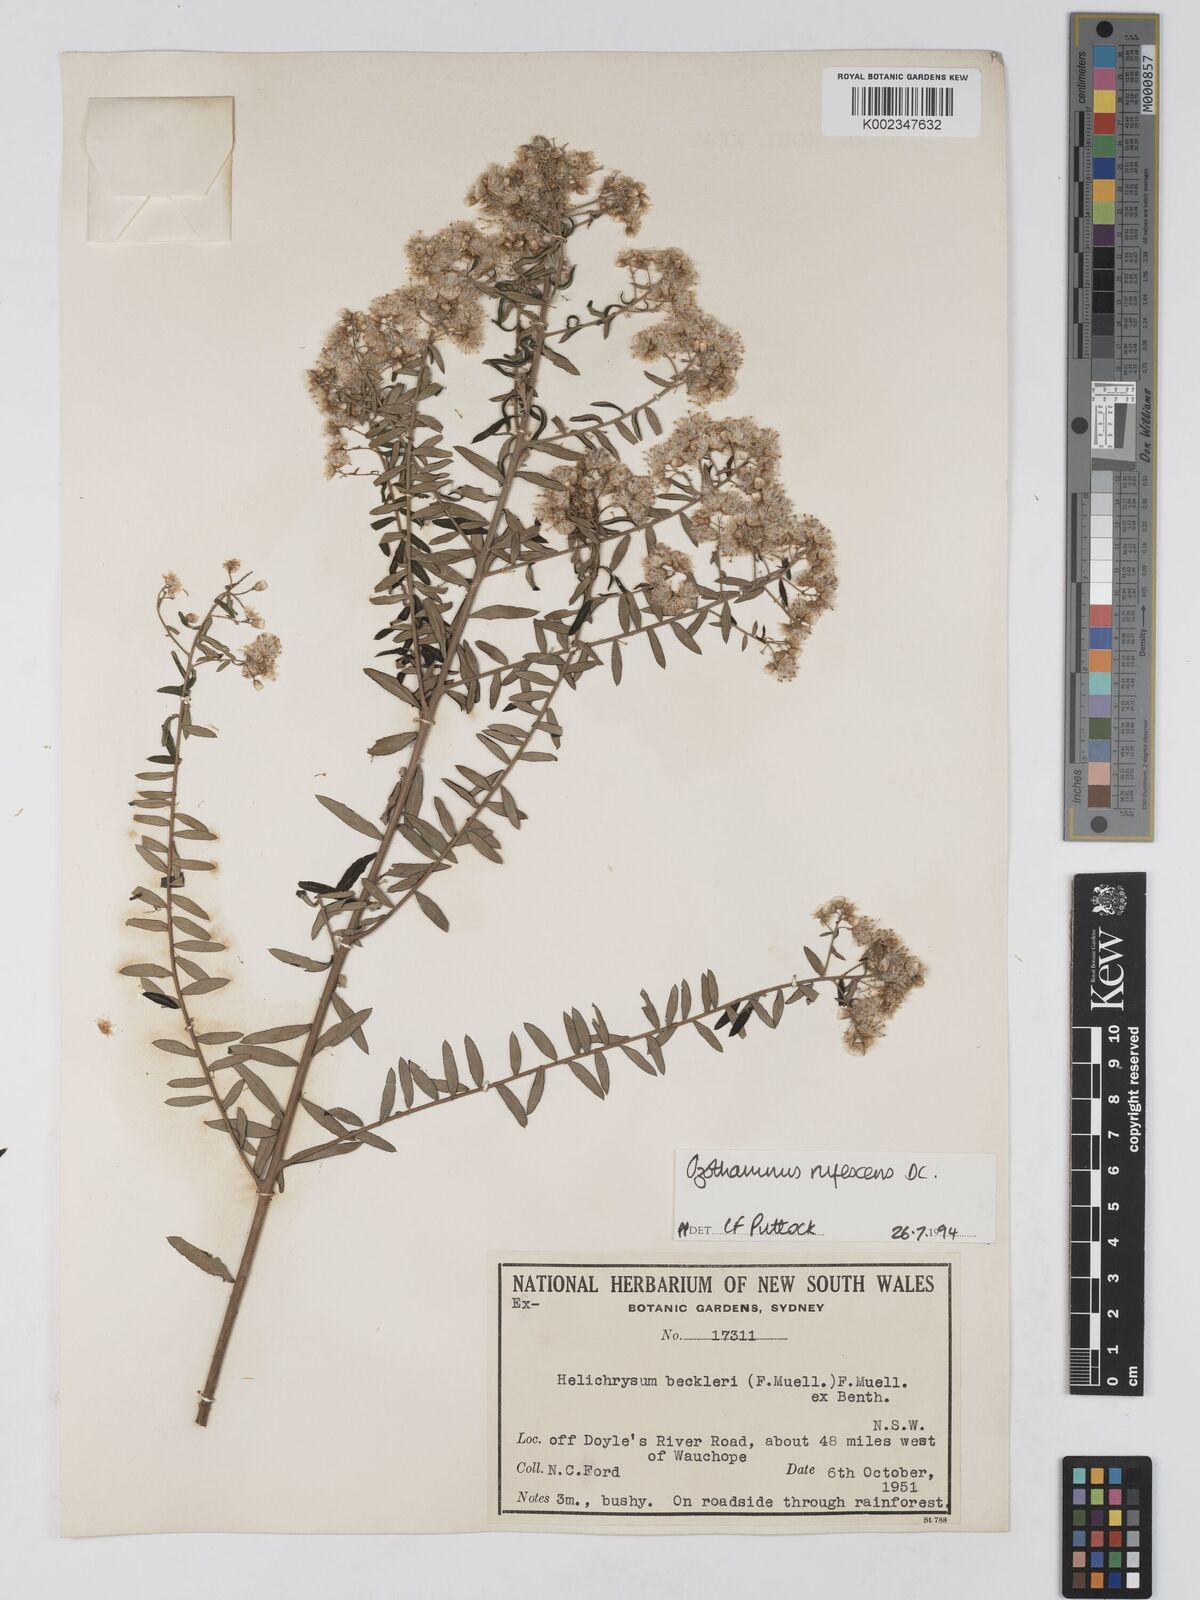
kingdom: Plantae
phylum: Tracheophyta
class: Magnoliopsida
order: Asterales
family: Asteraceae
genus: Ozothamnus
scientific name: Ozothamnus rufescens
